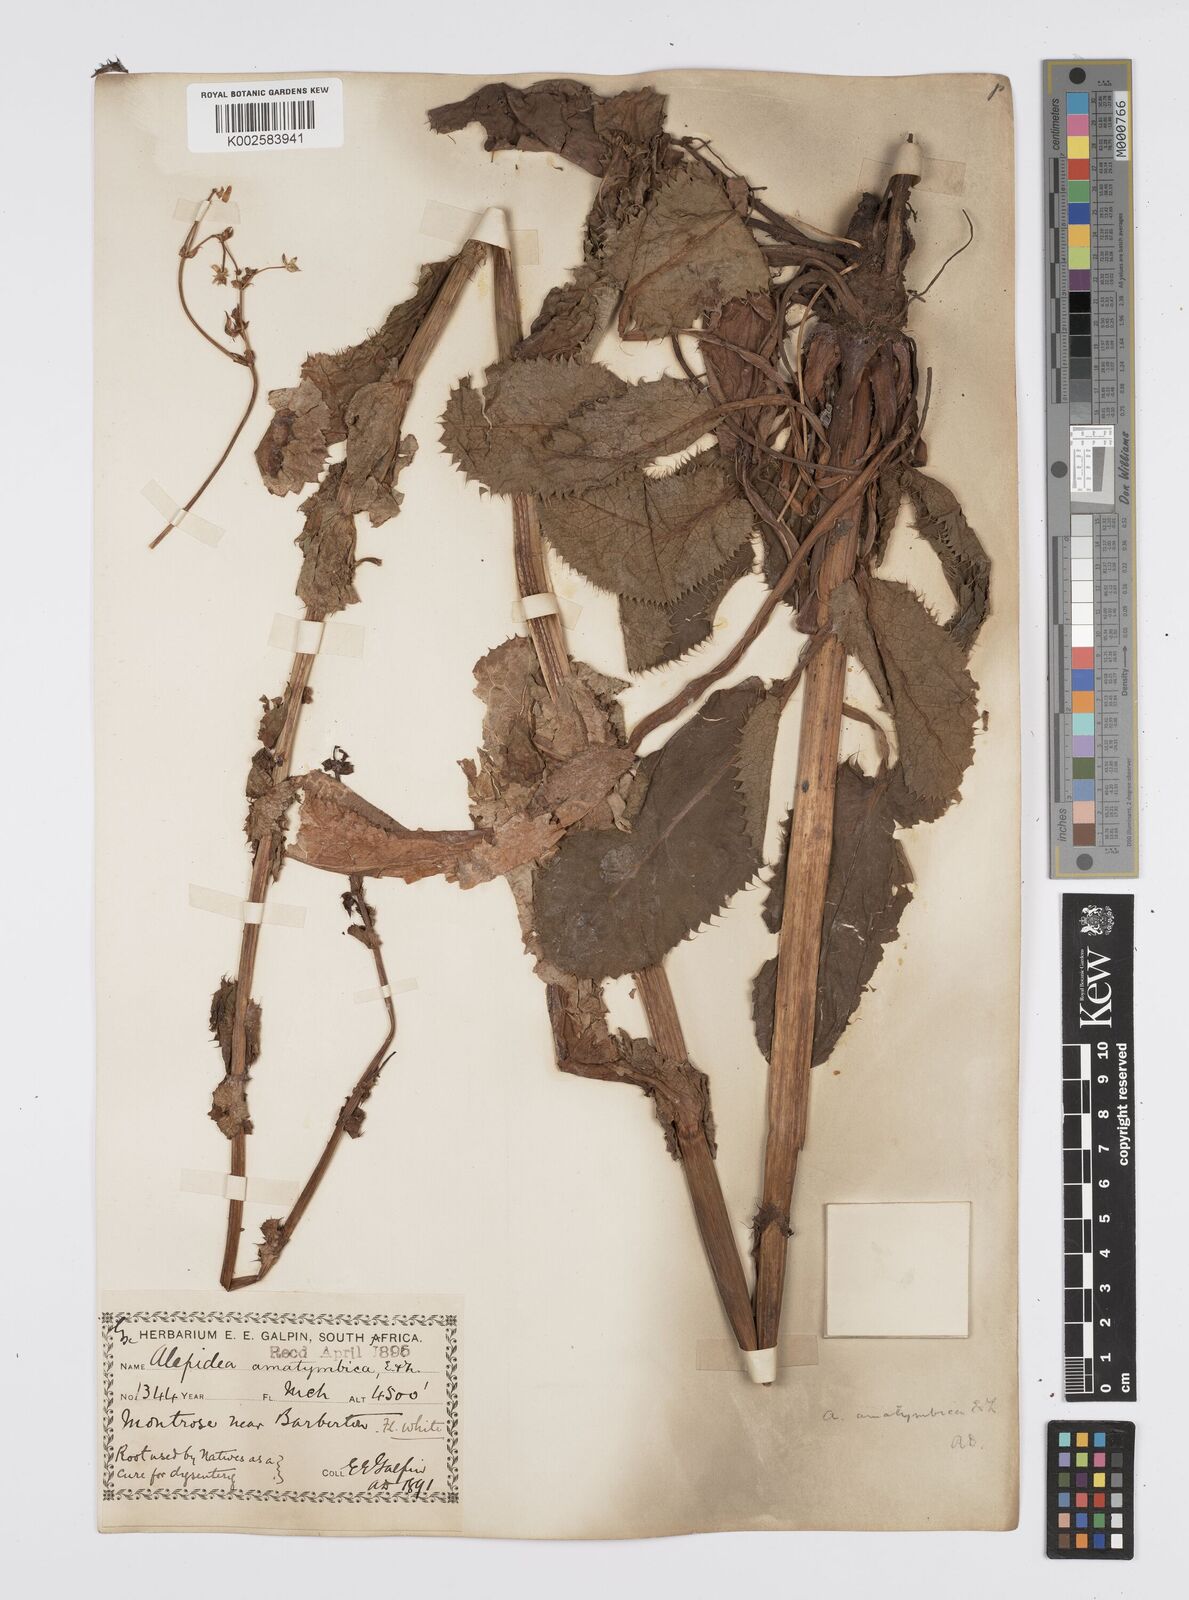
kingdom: Plantae
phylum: Tracheophyta
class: Magnoliopsida
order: Apiales
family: Apiaceae
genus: Alepidea
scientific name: Alepidea amatymbica
